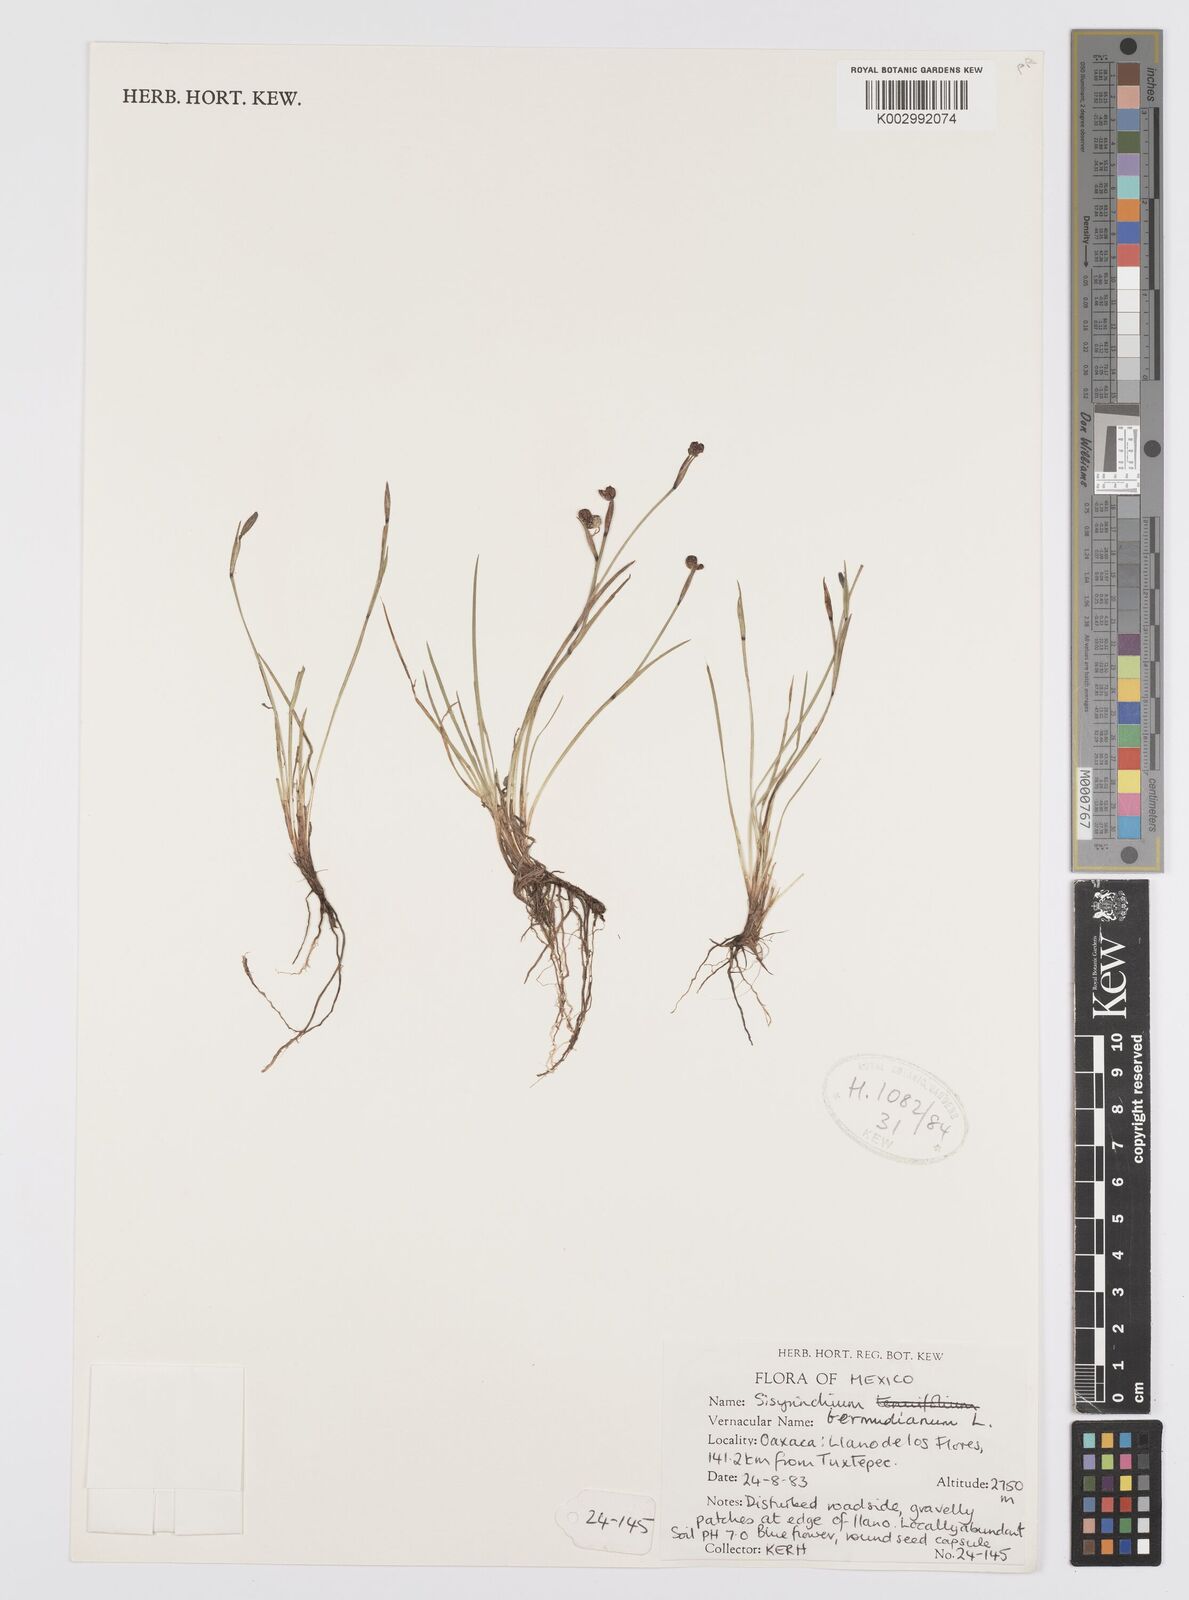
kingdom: Plantae
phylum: Tracheophyta
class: Liliopsida
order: Asparagales
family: Iridaceae
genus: Sisyrinchium
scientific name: Sisyrinchium bermudiana
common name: Blue-eyed-grass
